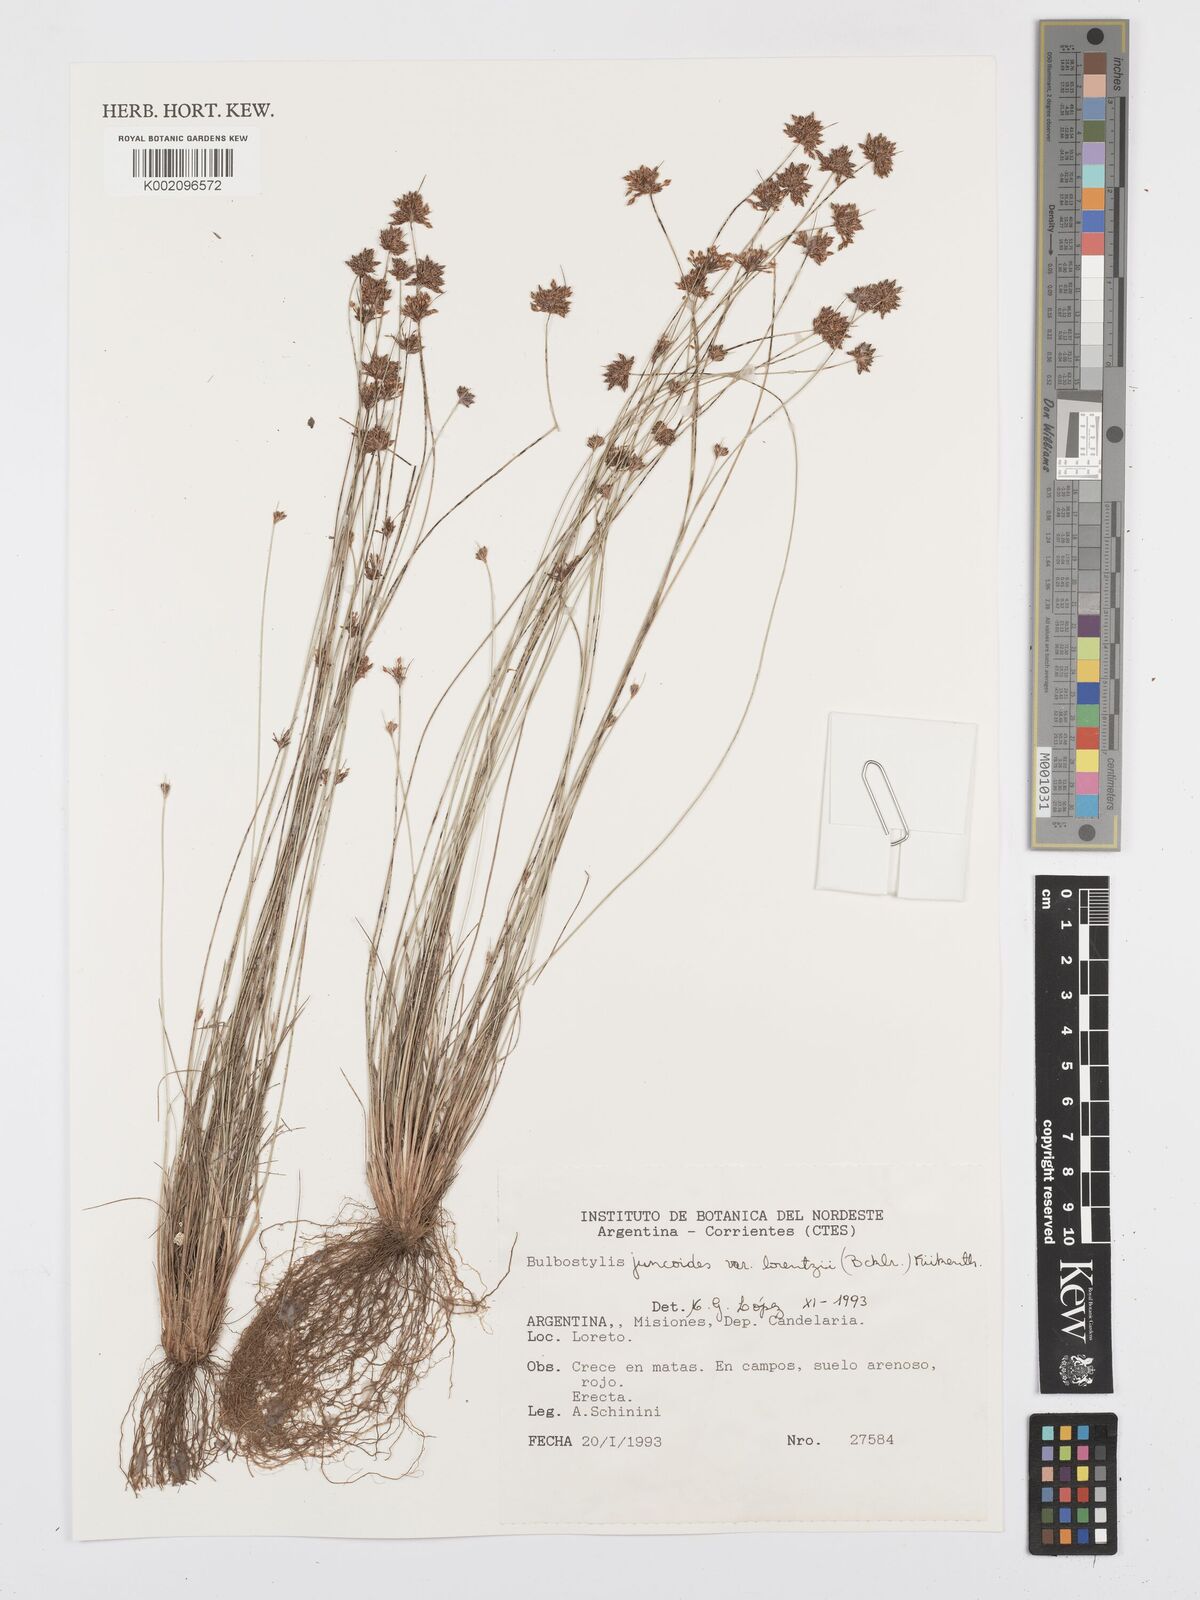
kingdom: Plantae
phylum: Tracheophyta
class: Liliopsida
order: Poales
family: Cyperaceae
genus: Bulbostylis
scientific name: Bulbostylis juncoides
